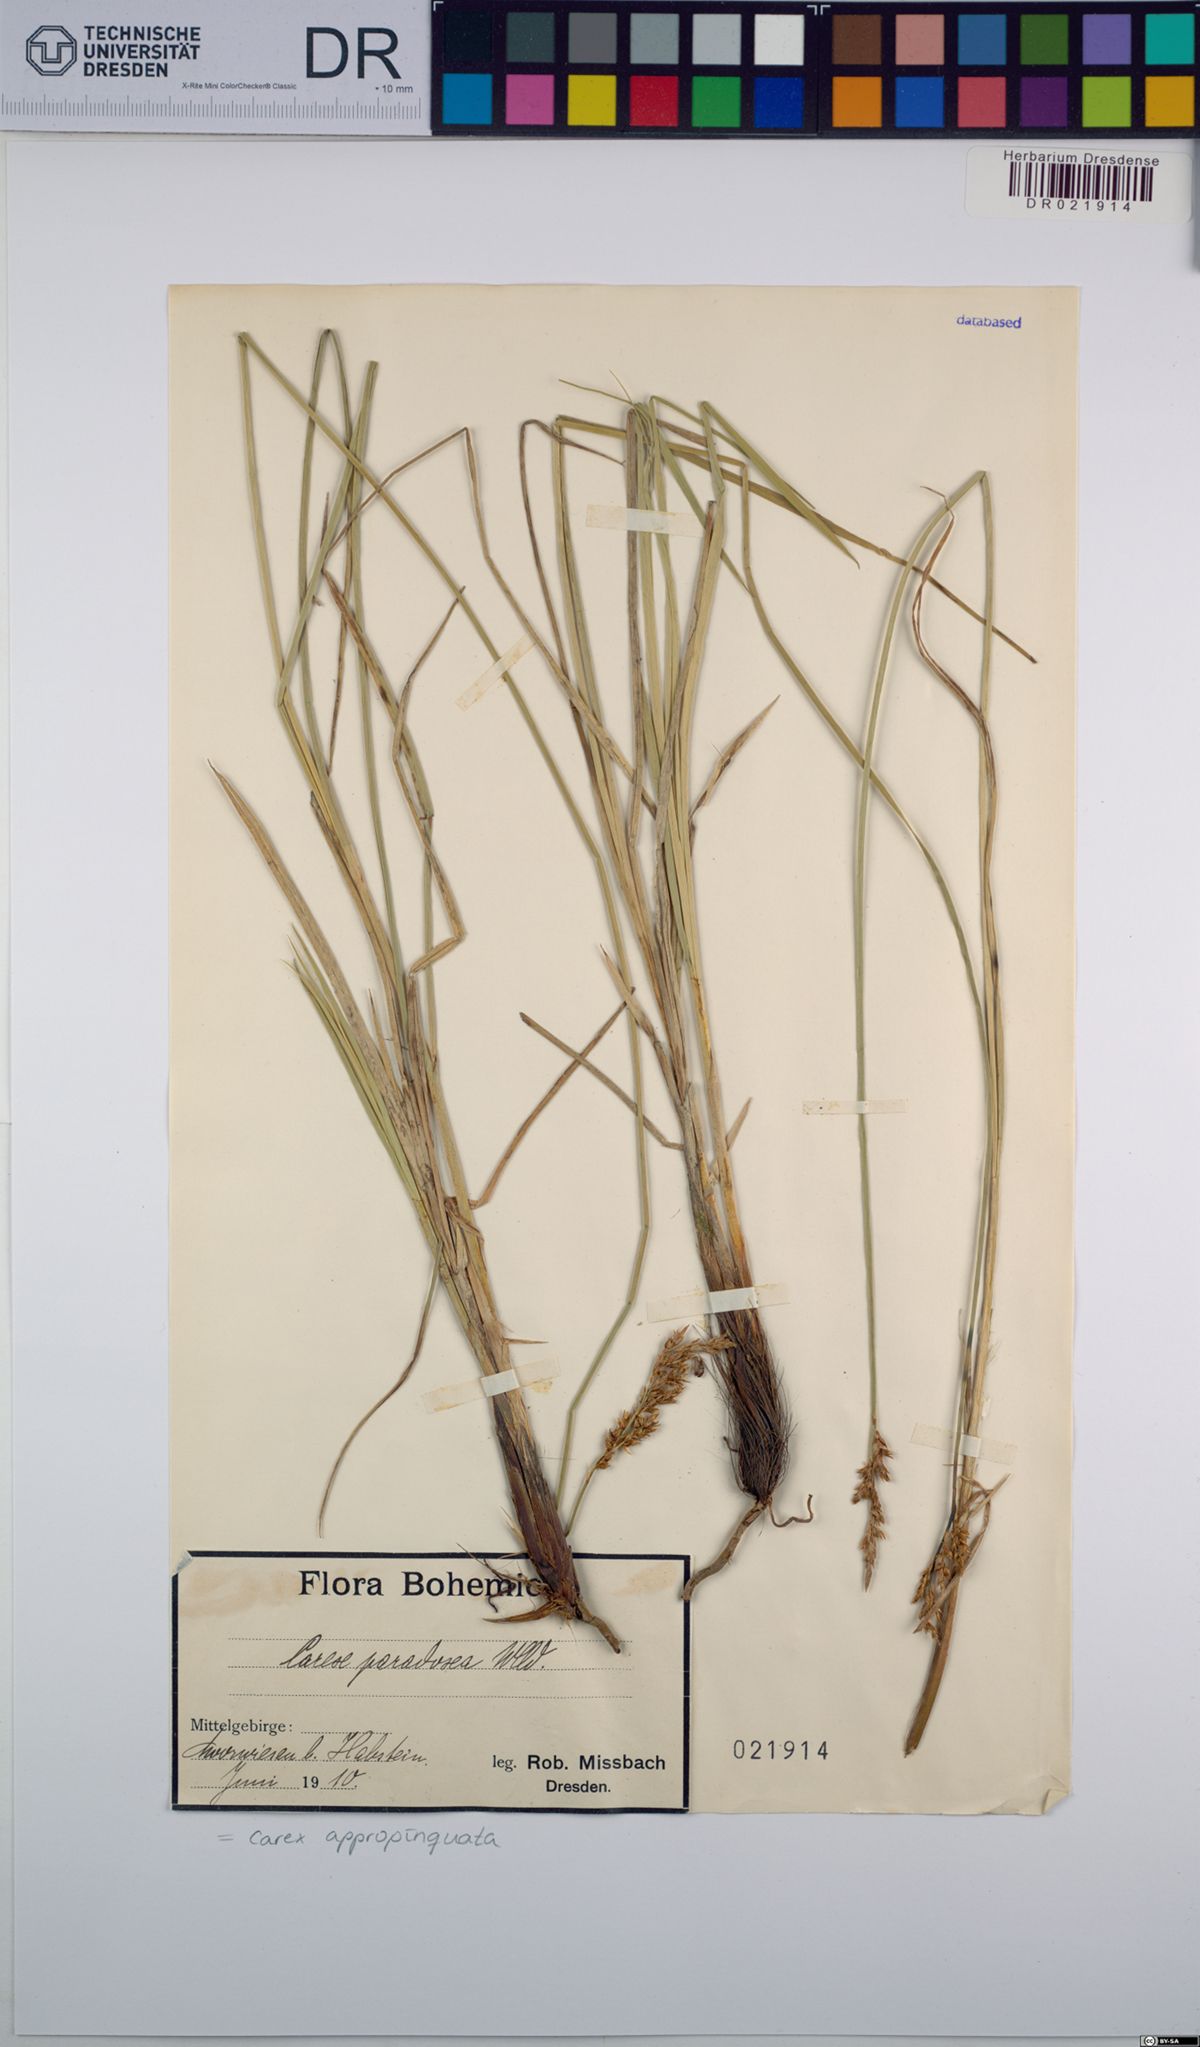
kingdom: Plantae
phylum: Tracheophyta
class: Liliopsida
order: Poales
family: Cyperaceae
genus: Carex
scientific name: Carex appropinquata
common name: Fibrous tussock-sedge
